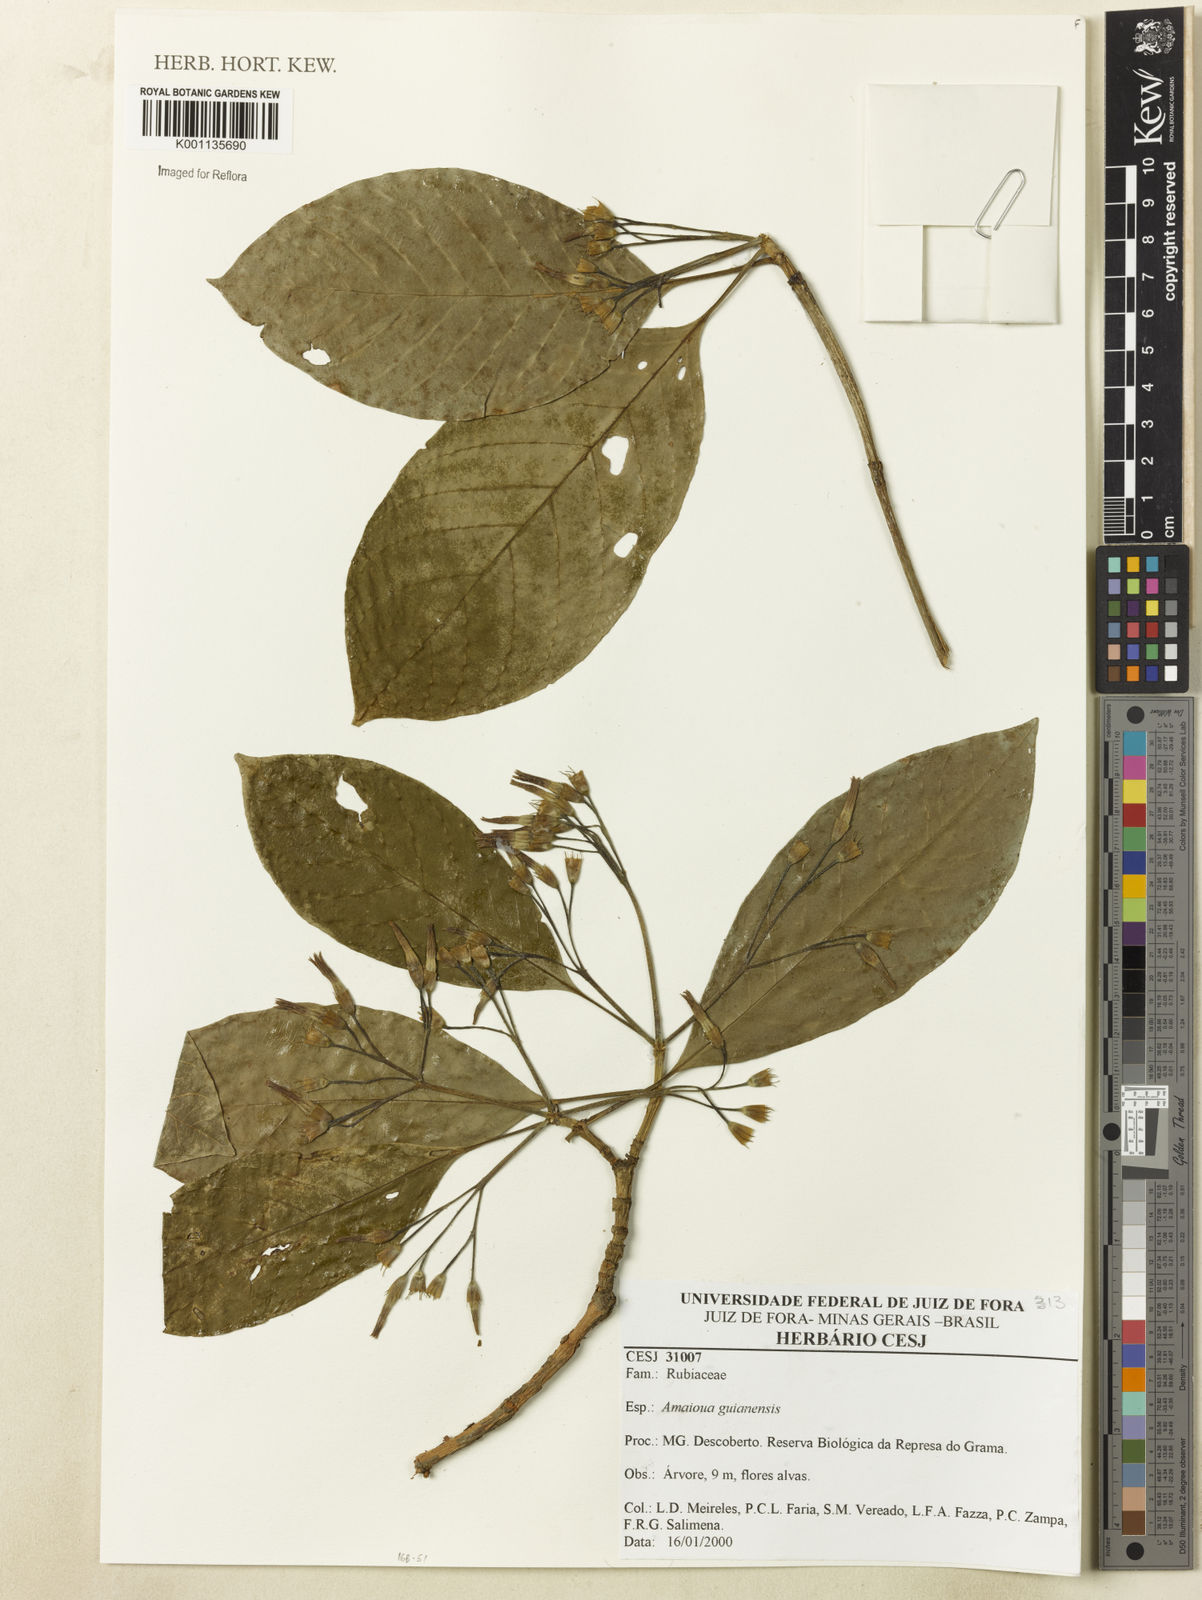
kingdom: Plantae
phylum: Tracheophyta
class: Magnoliopsida
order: Gentianales
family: Rubiaceae
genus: Amaioua
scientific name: Amaioua guianensis
